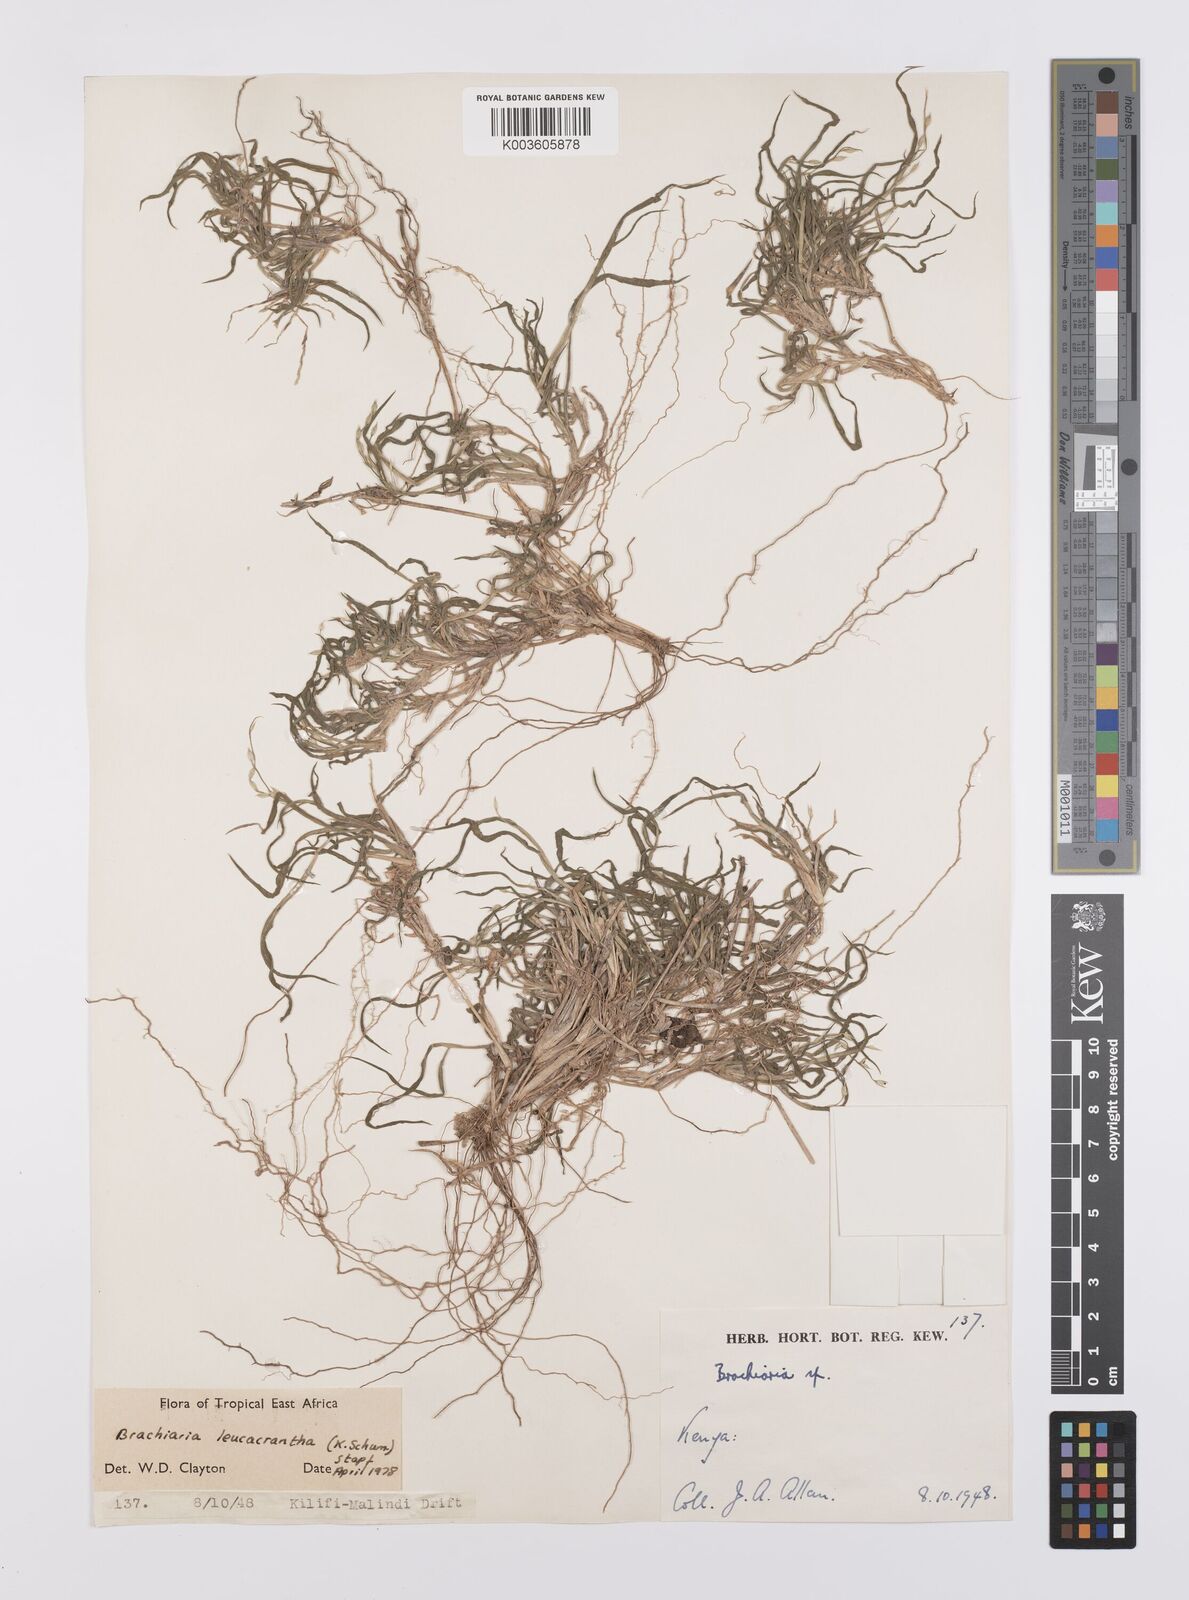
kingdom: Plantae
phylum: Tracheophyta
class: Liliopsida
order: Poales
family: Poaceae
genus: Urochloa
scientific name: Urochloa xantholeuca
